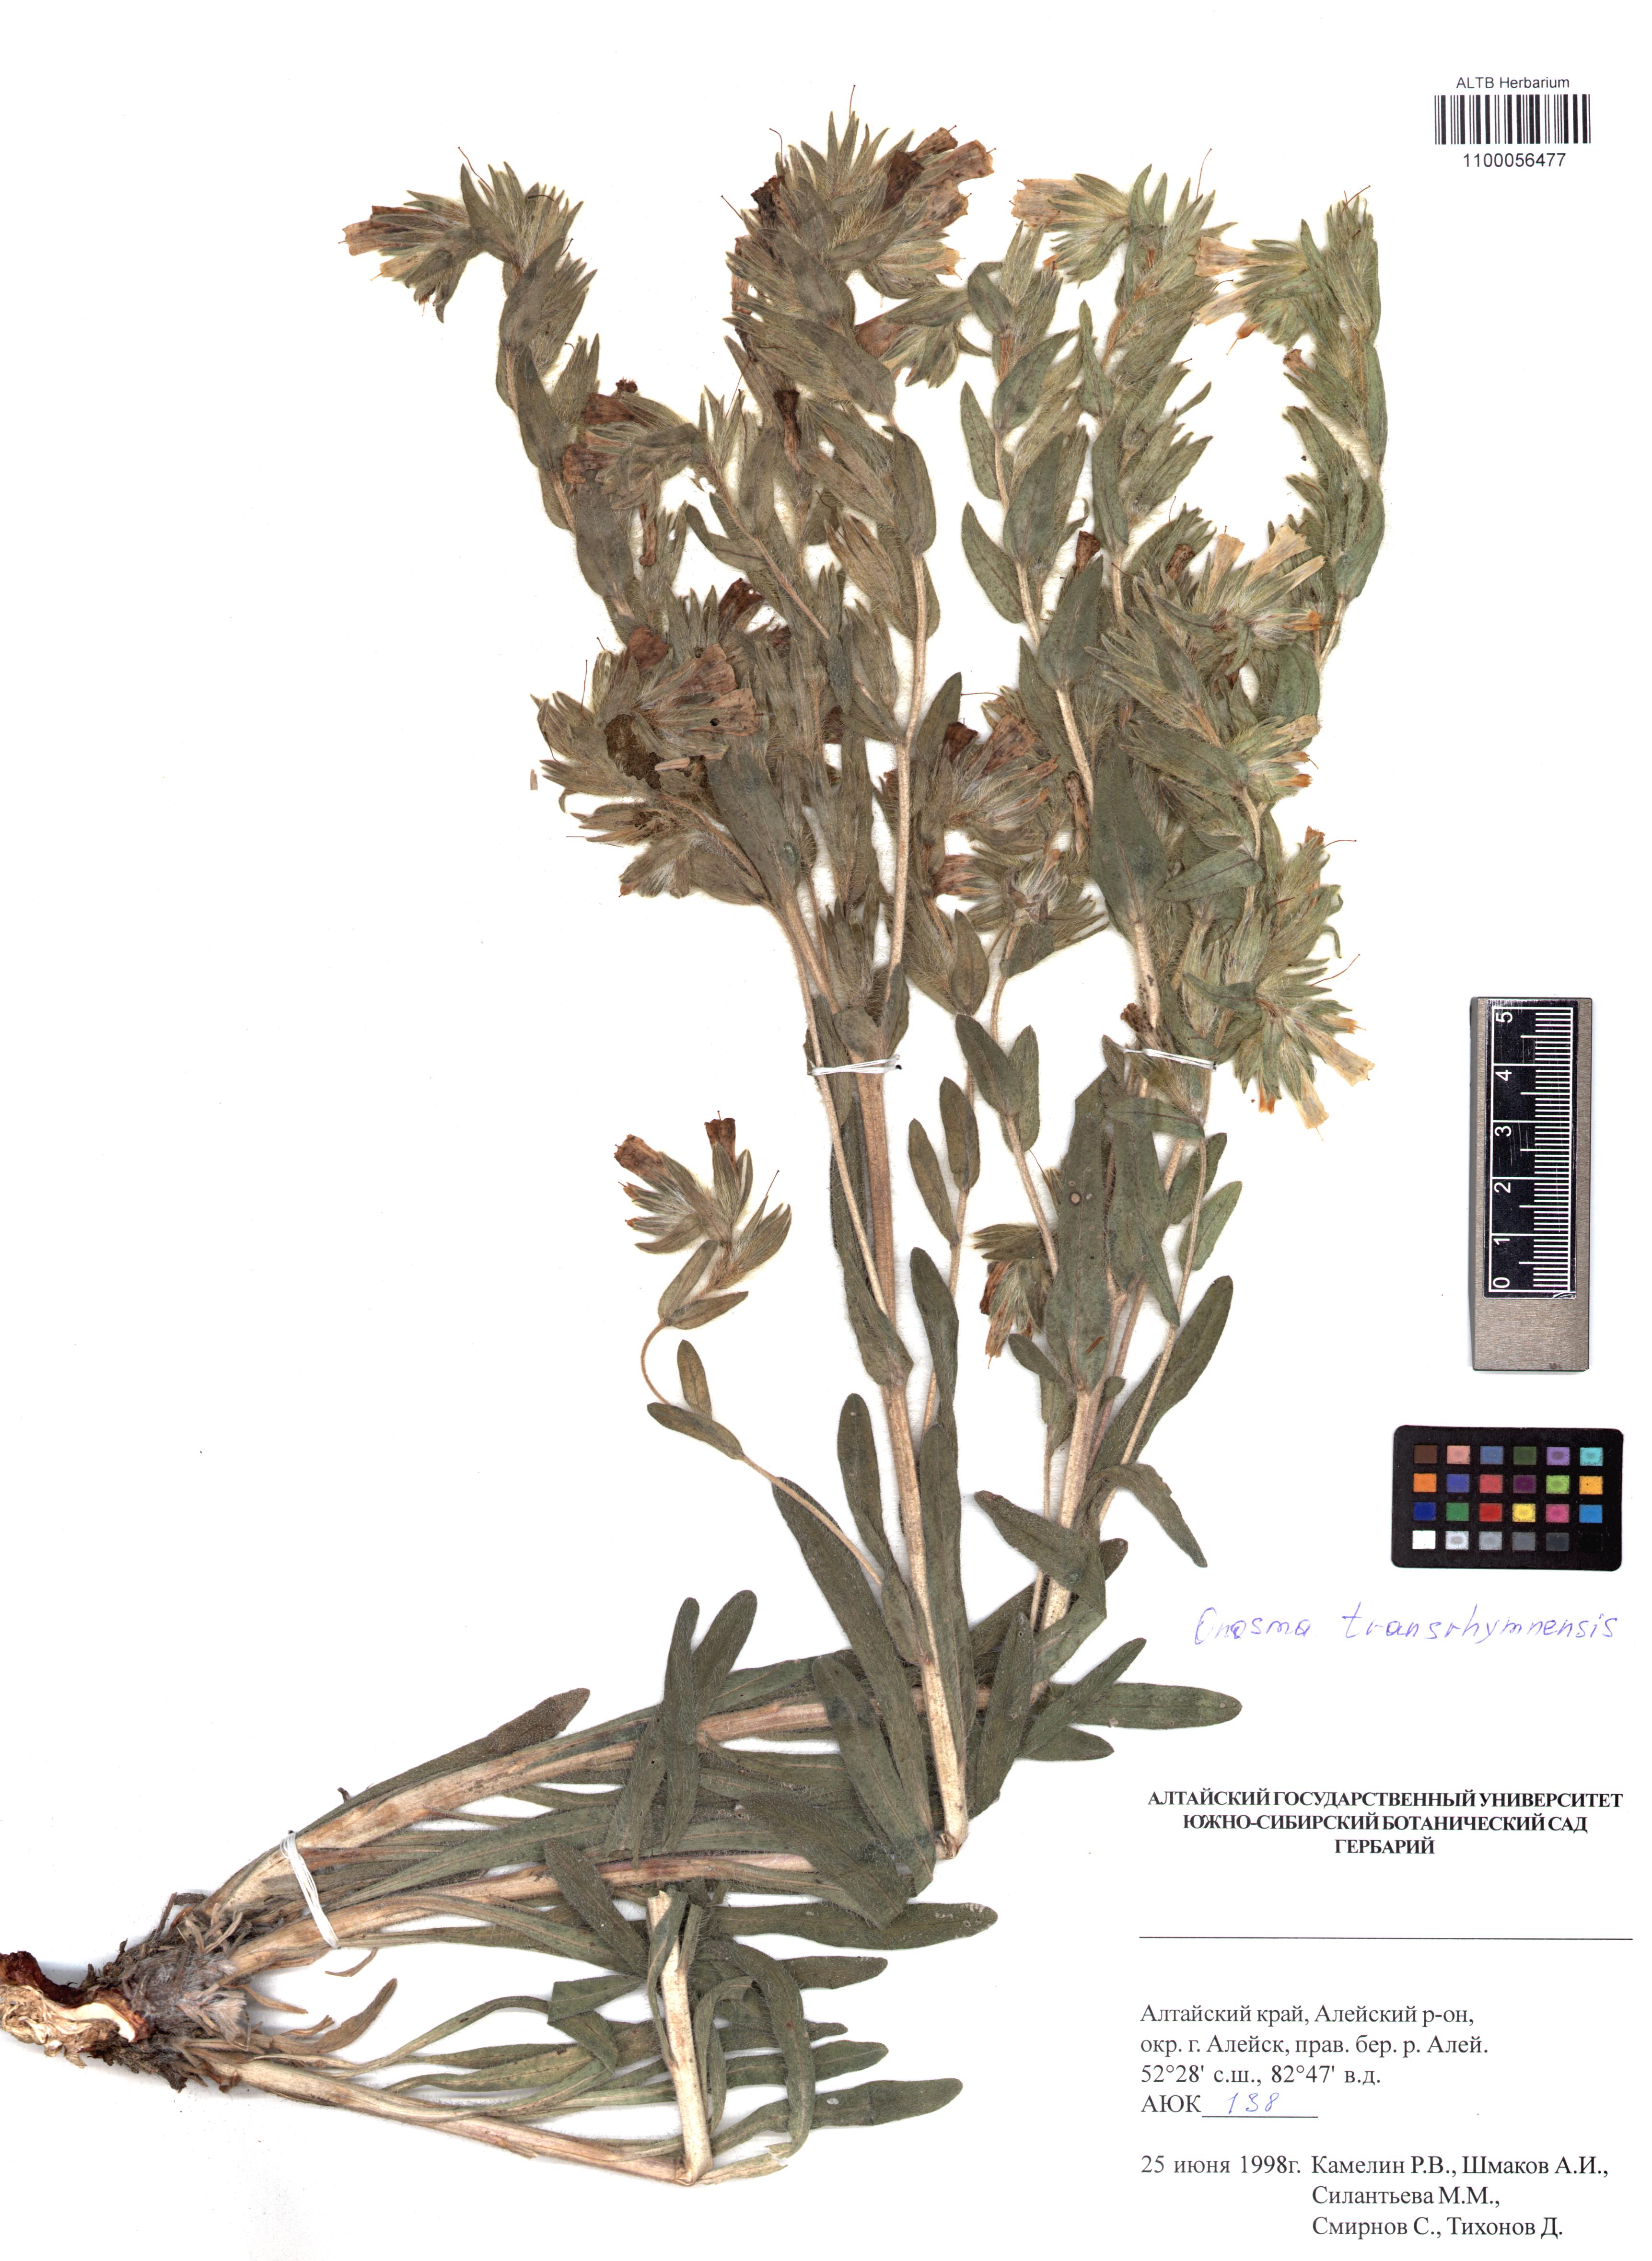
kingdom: Plantae
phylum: Tracheophyta
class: Magnoliopsida
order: Boraginales
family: Boraginaceae
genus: Onosma
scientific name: Onosma transrhymnensis
